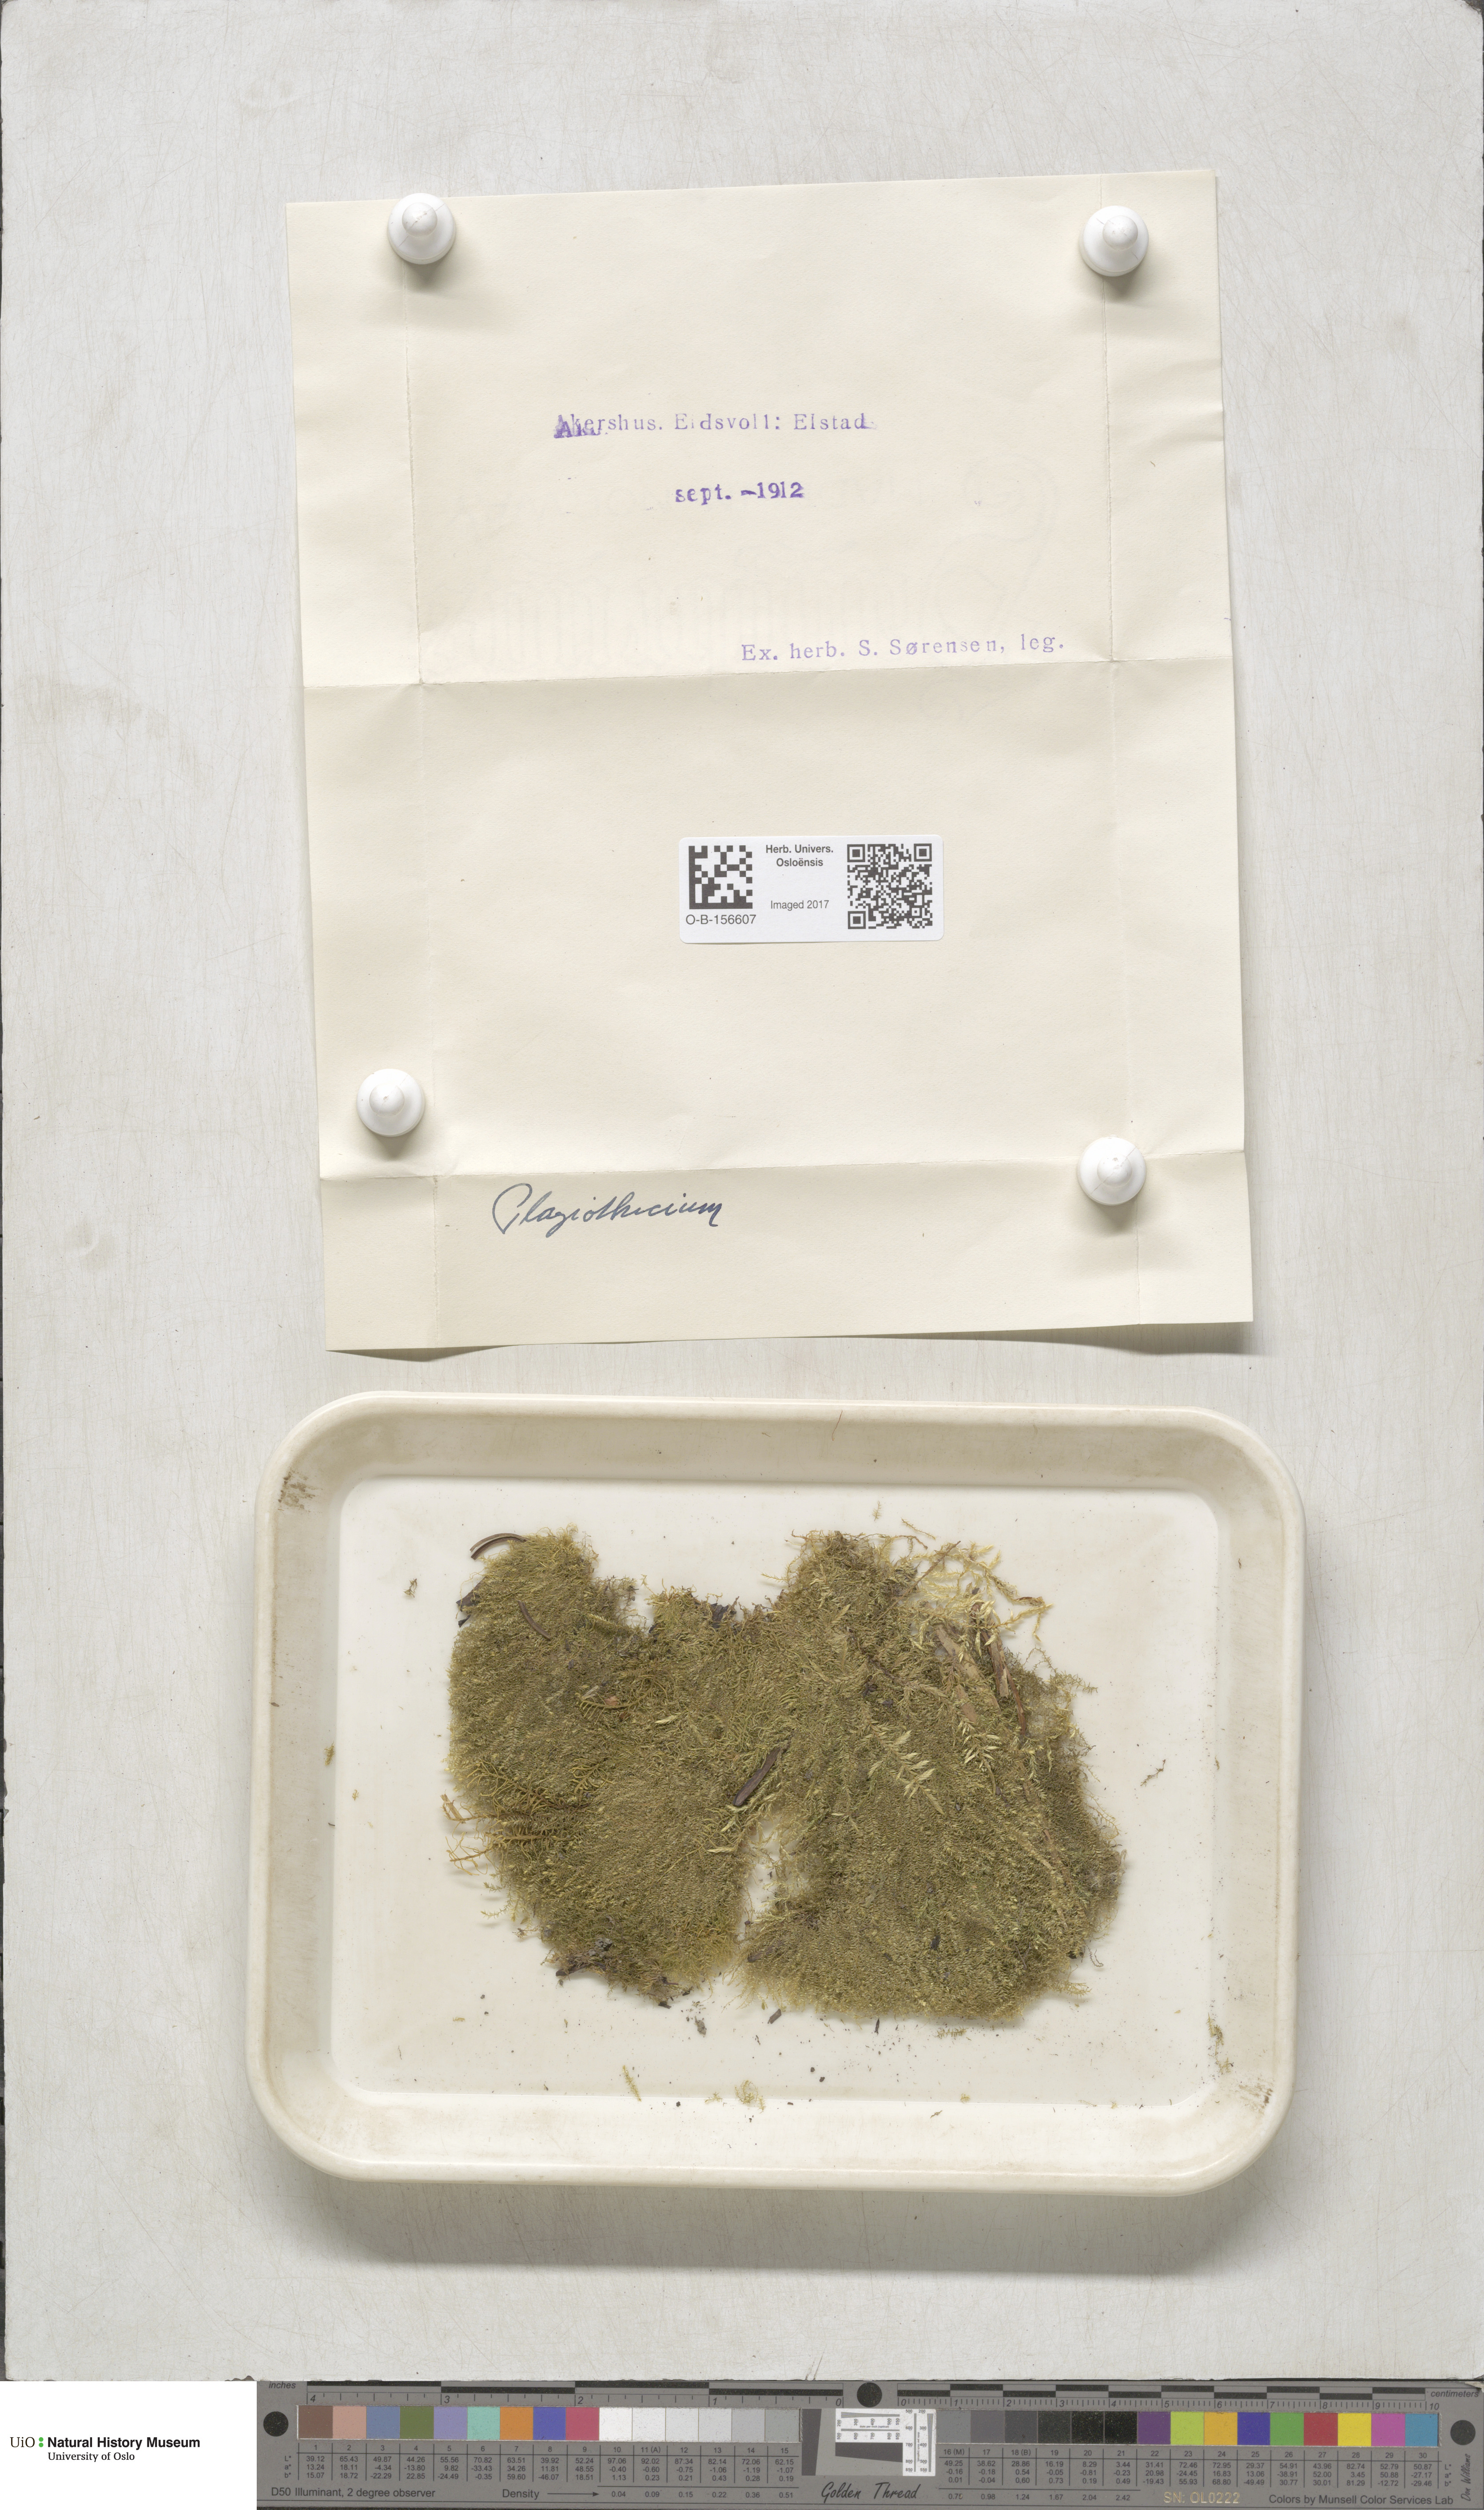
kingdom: Plantae
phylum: Bryophyta
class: Bryopsida
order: Hypnales
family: Plagiotheciaceae
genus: Plagiothecium
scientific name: Plagiothecium
